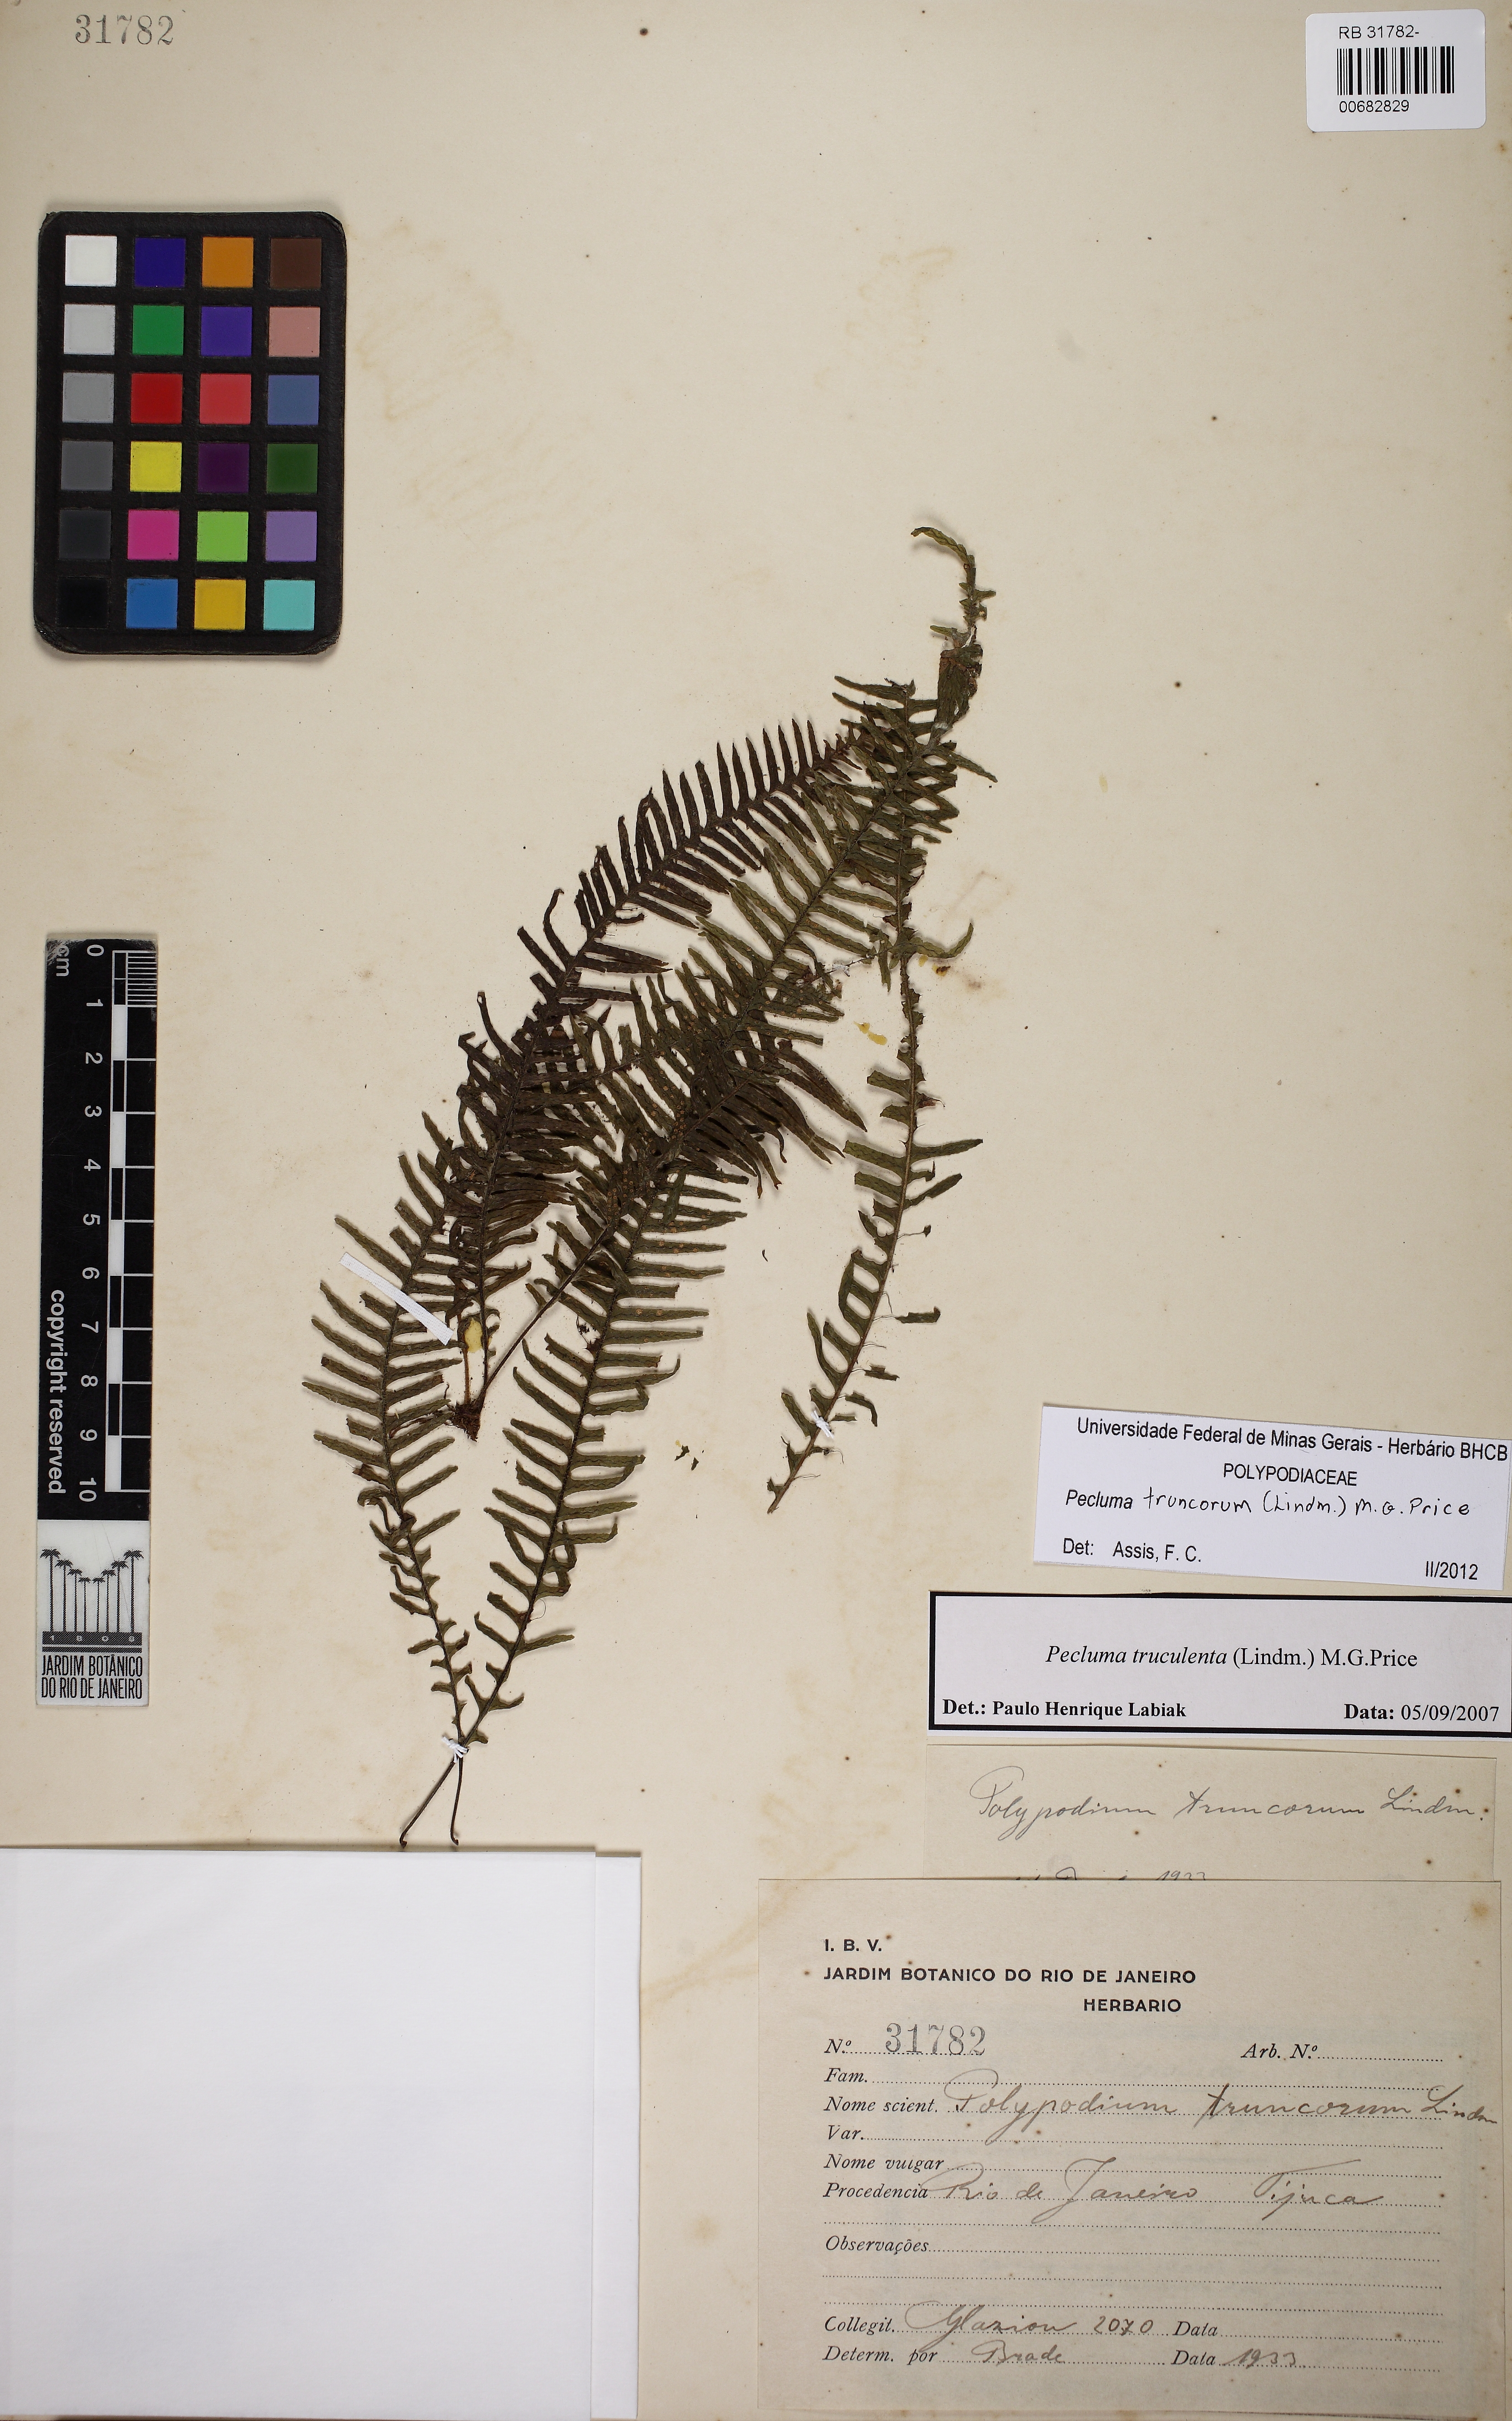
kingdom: Plantae
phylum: Tracheophyta
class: Polypodiopsida
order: Polypodiales
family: Polypodiaceae
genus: Pecluma
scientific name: Pecluma truncorum
